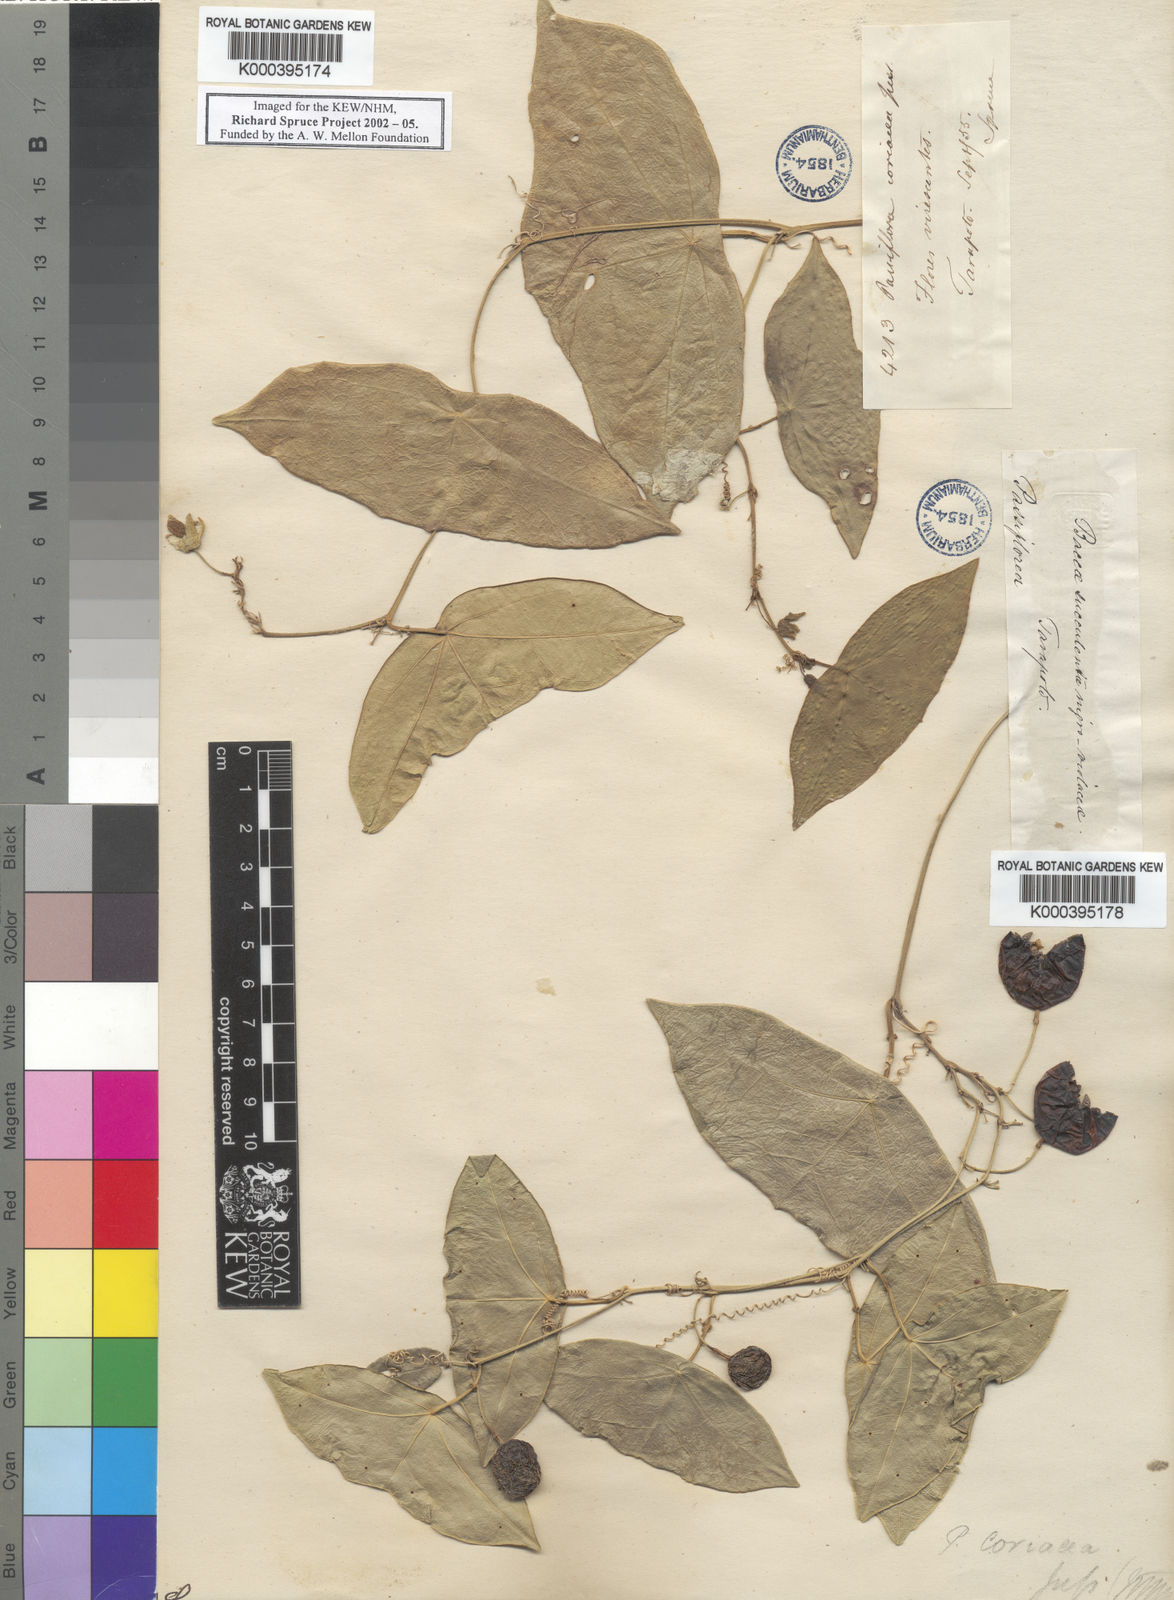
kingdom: Plantae
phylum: Tracheophyta
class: Magnoliopsida
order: Malpighiales
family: Passifloraceae
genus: Passiflora
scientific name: Passiflora coriacea
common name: Bat-leaf passionflower
